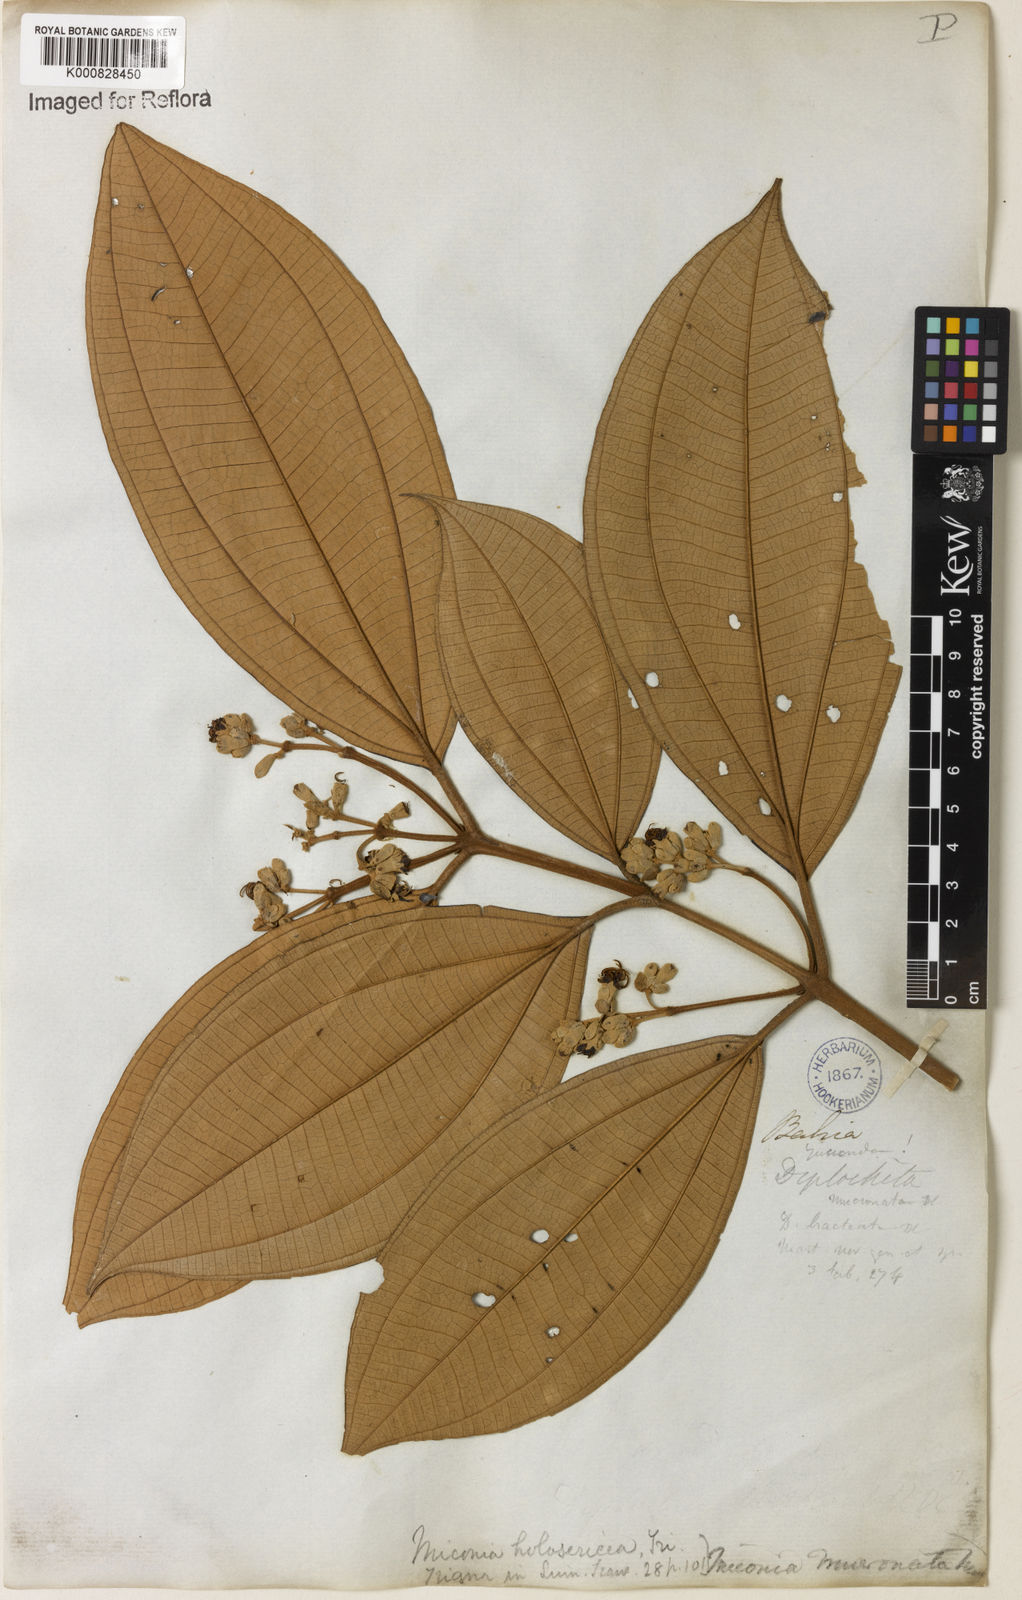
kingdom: Plantae
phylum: Tracheophyta
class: Magnoliopsida
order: Myrtales
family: Melastomataceae
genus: Miconia
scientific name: Miconia holosericea
